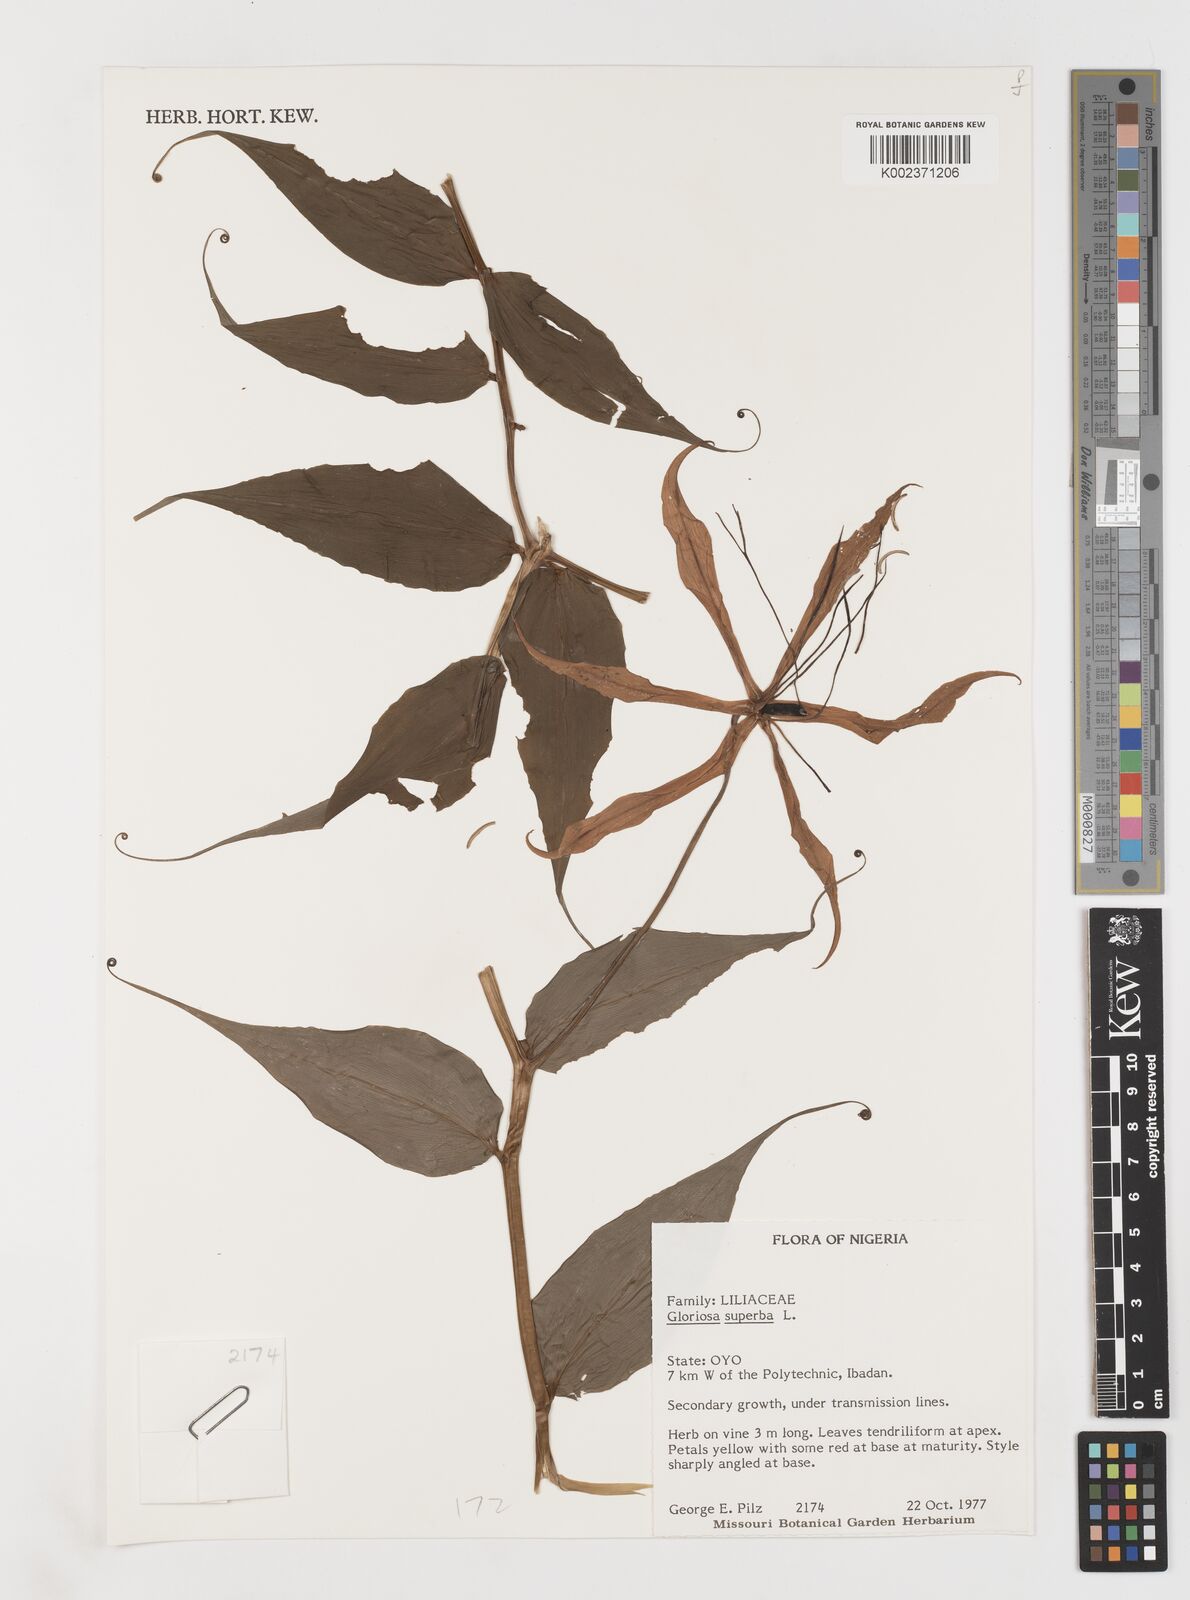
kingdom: Plantae
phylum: Tracheophyta
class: Liliopsida
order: Liliales
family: Colchicaceae
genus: Gloriosa
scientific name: Gloriosa simplex
